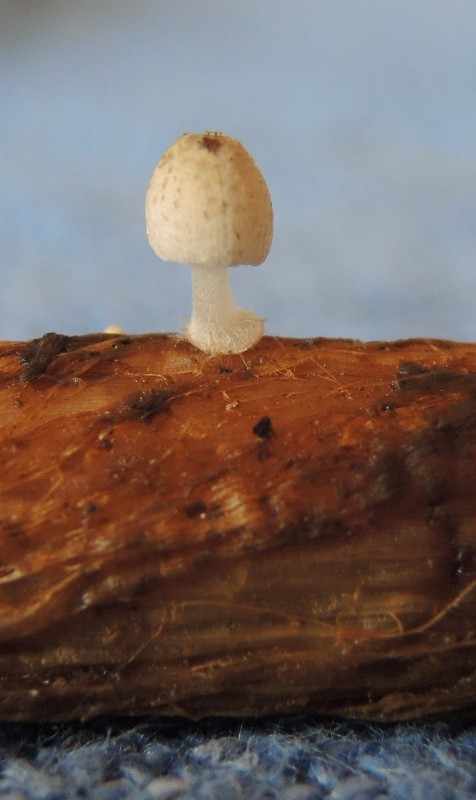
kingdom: Fungi
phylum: Basidiomycota
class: Agaricomycetes
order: Agaricales
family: Psathyrellaceae
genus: Coprinopsis
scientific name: Coprinopsis kubickae
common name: amfibie-blækhat
